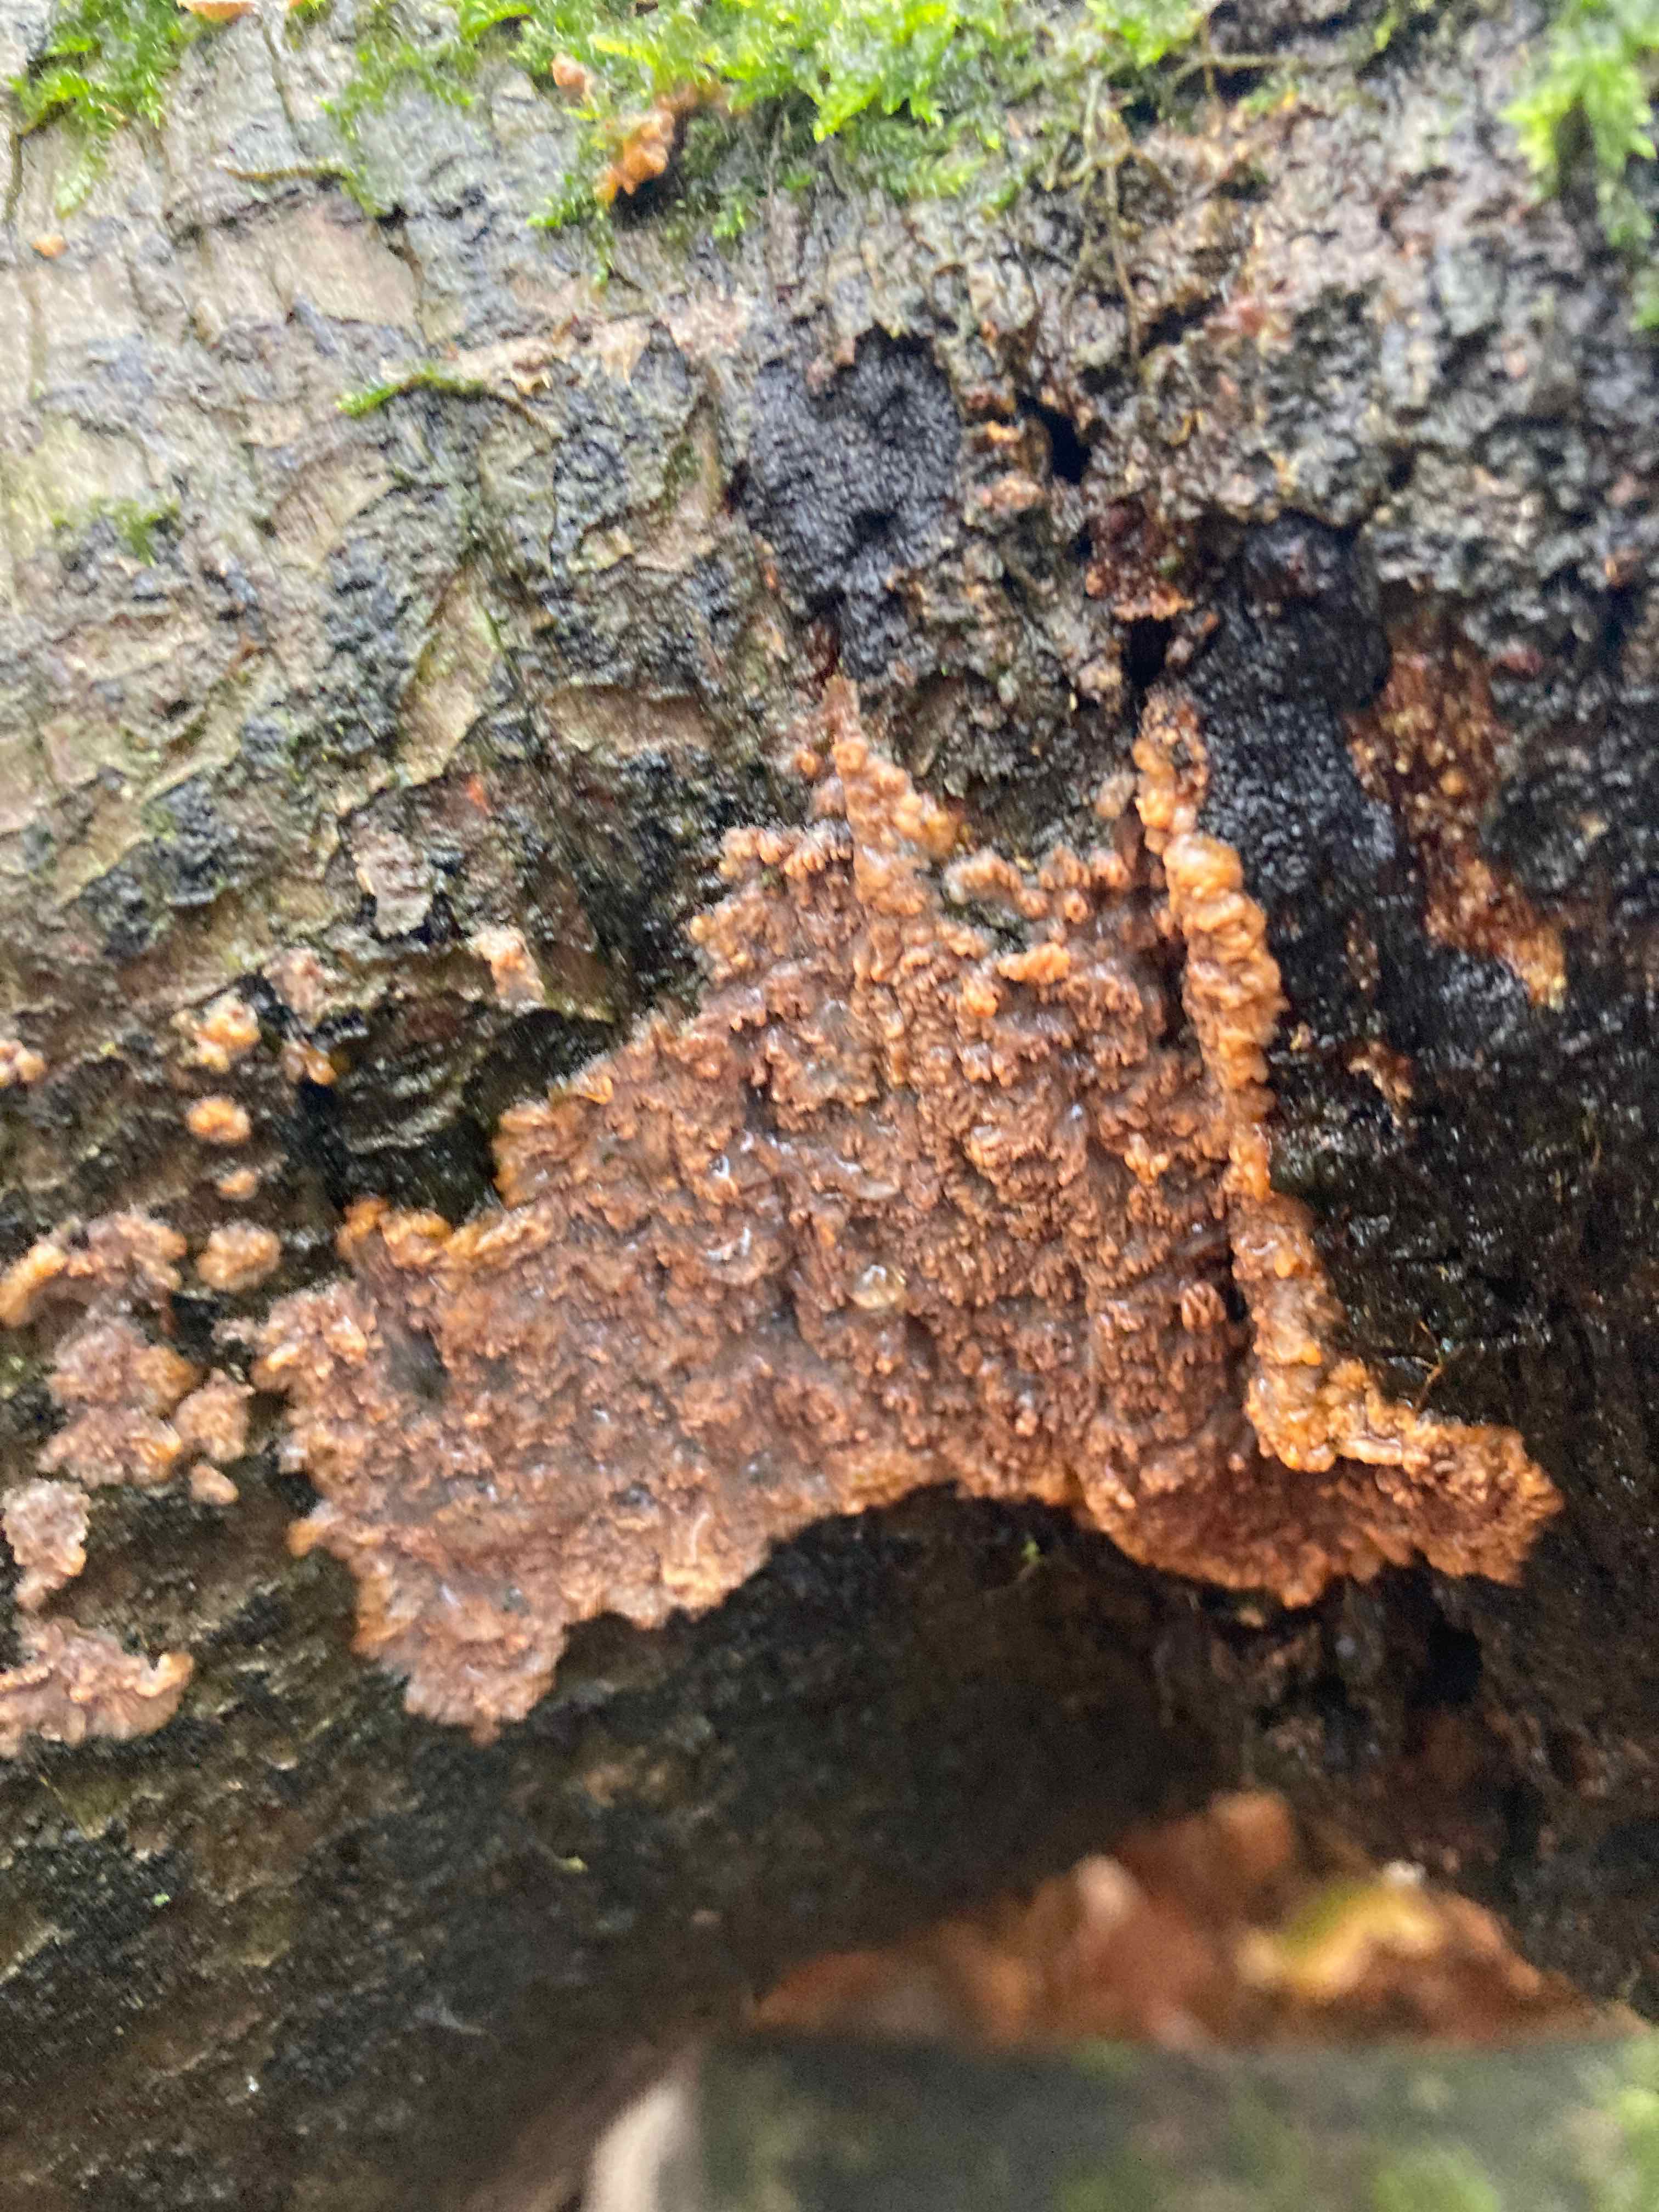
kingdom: Fungi
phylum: Basidiomycota
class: Agaricomycetes
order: Polyporales
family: Meruliaceae
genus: Phlebia
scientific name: Phlebia radiata
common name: stråle-åresvamp
